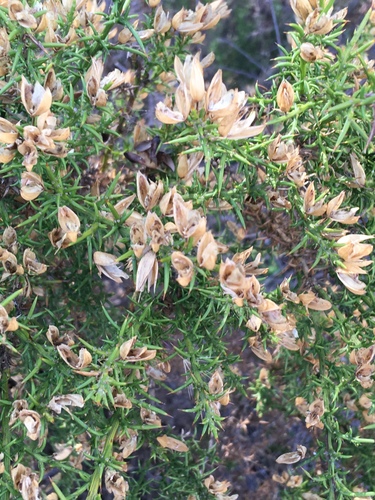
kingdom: Plantae
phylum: Tracheophyta
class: Magnoliopsida
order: Fabales
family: Fabaceae
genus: Ulex
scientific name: Ulex parviflorus
